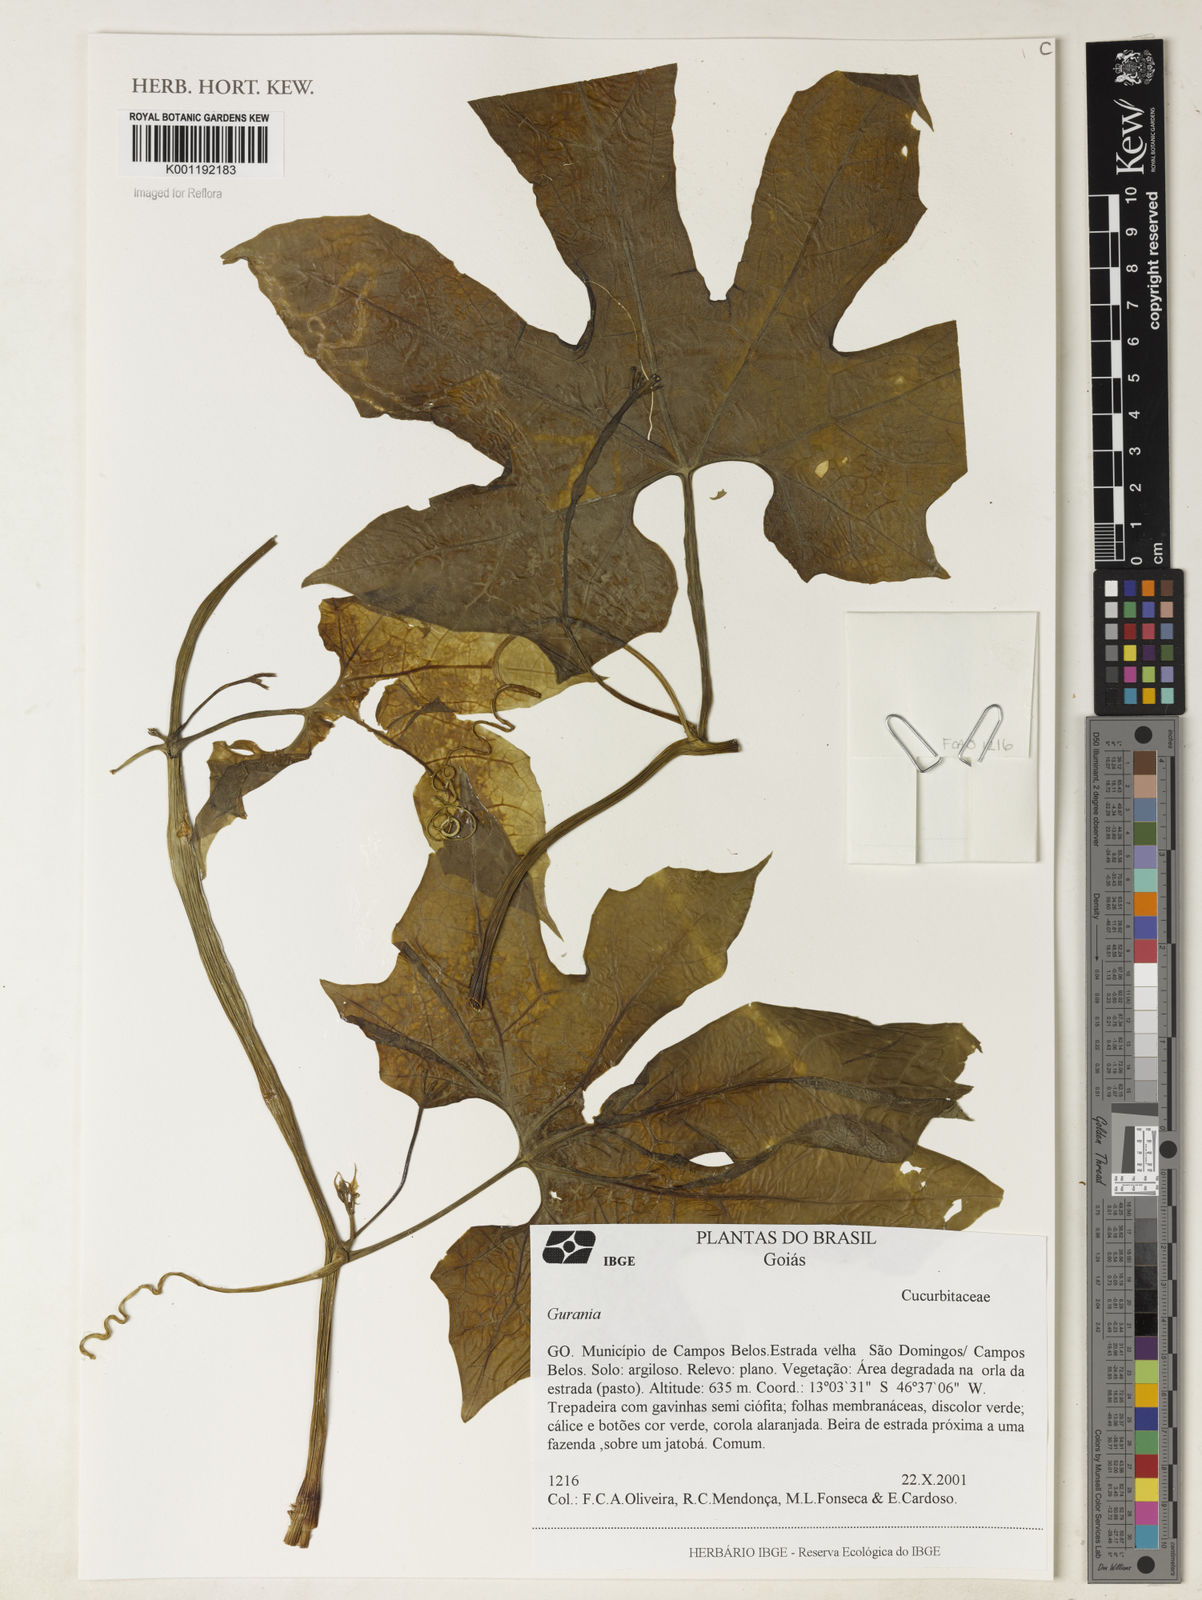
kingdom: Plantae
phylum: Tracheophyta
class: Magnoliopsida
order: Cucurbitales
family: Cucurbitaceae
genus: Gurania
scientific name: Gurania
